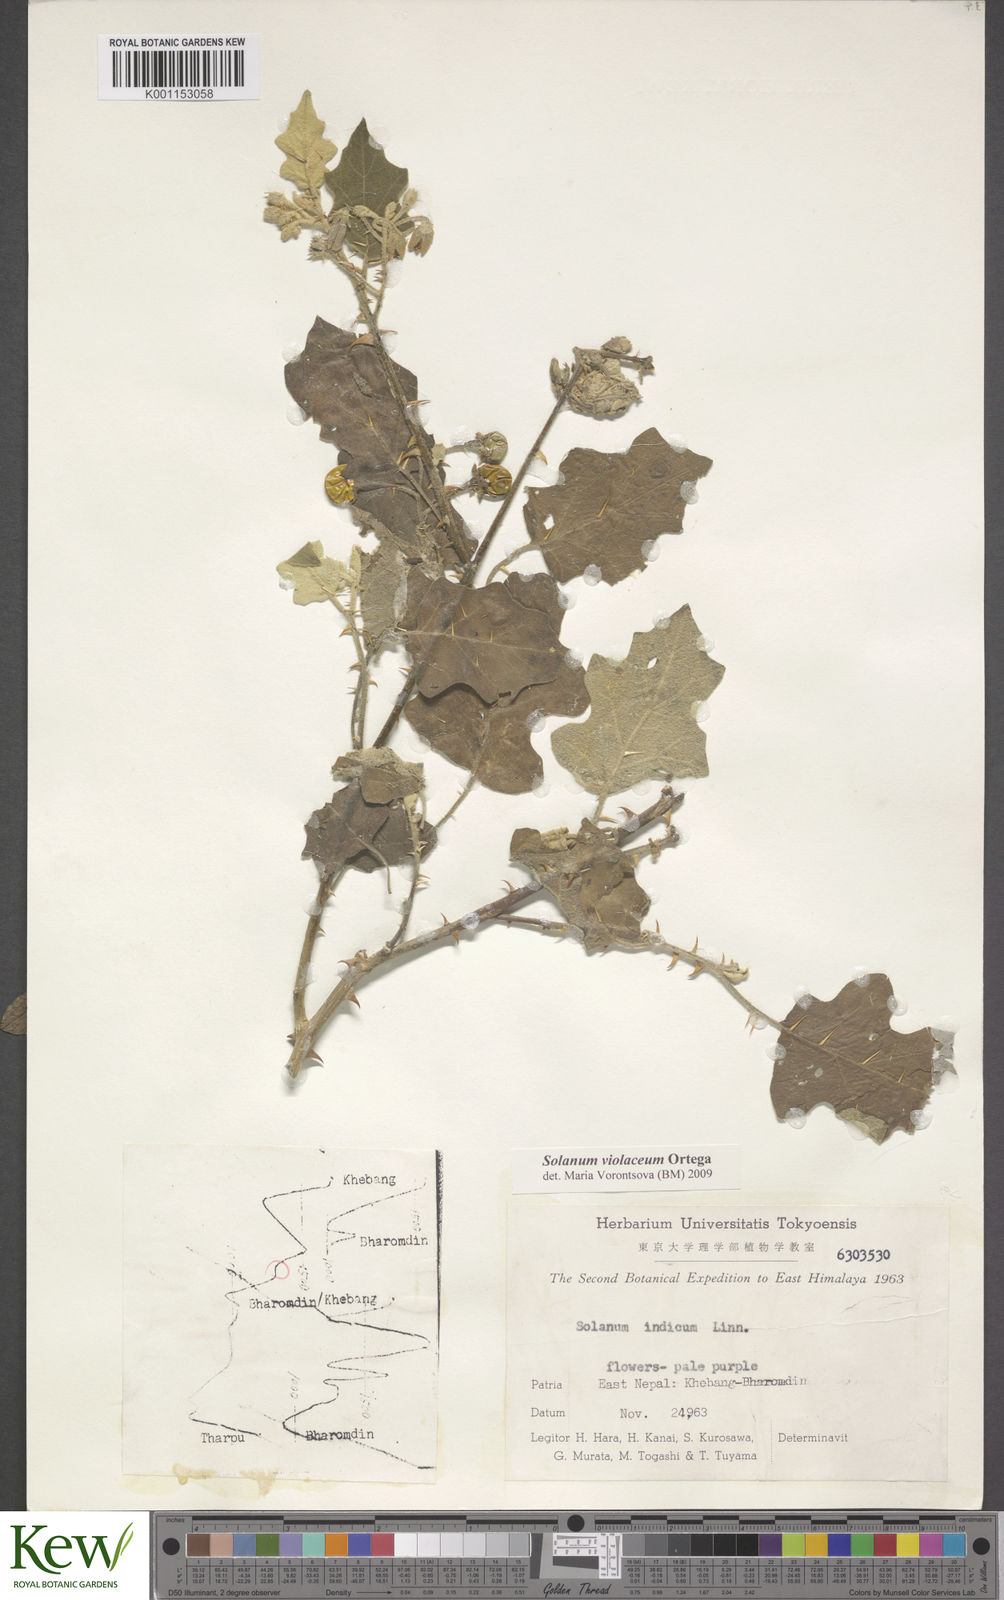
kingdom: Plantae
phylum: Tracheophyta
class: Magnoliopsida
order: Solanales
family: Solanaceae
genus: Solanum
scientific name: Solanum violaceum
